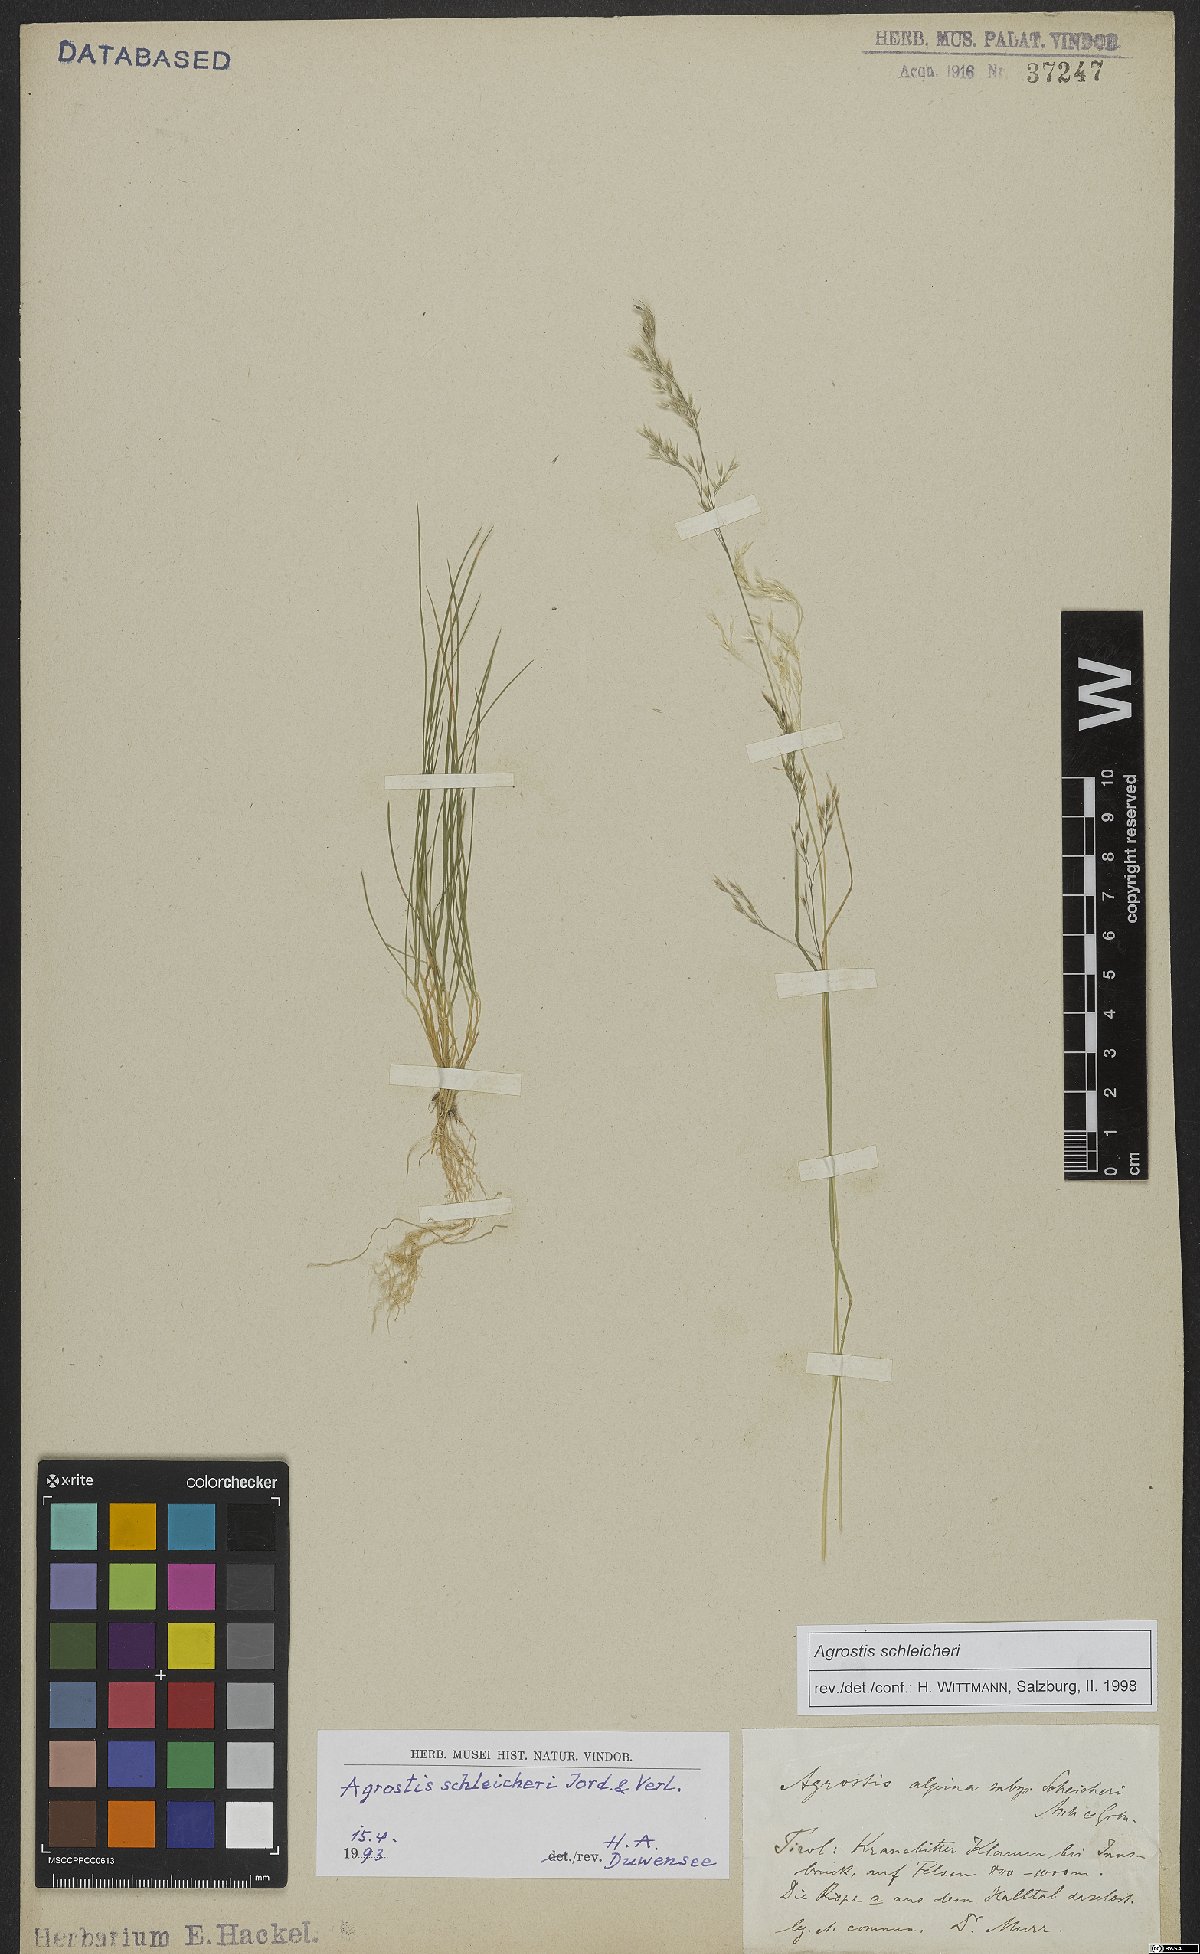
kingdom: Plantae
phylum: Tracheophyta
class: Liliopsida
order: Poales
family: Poaceae
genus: Alpagrostis
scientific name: Alpagrostis schleicheri
